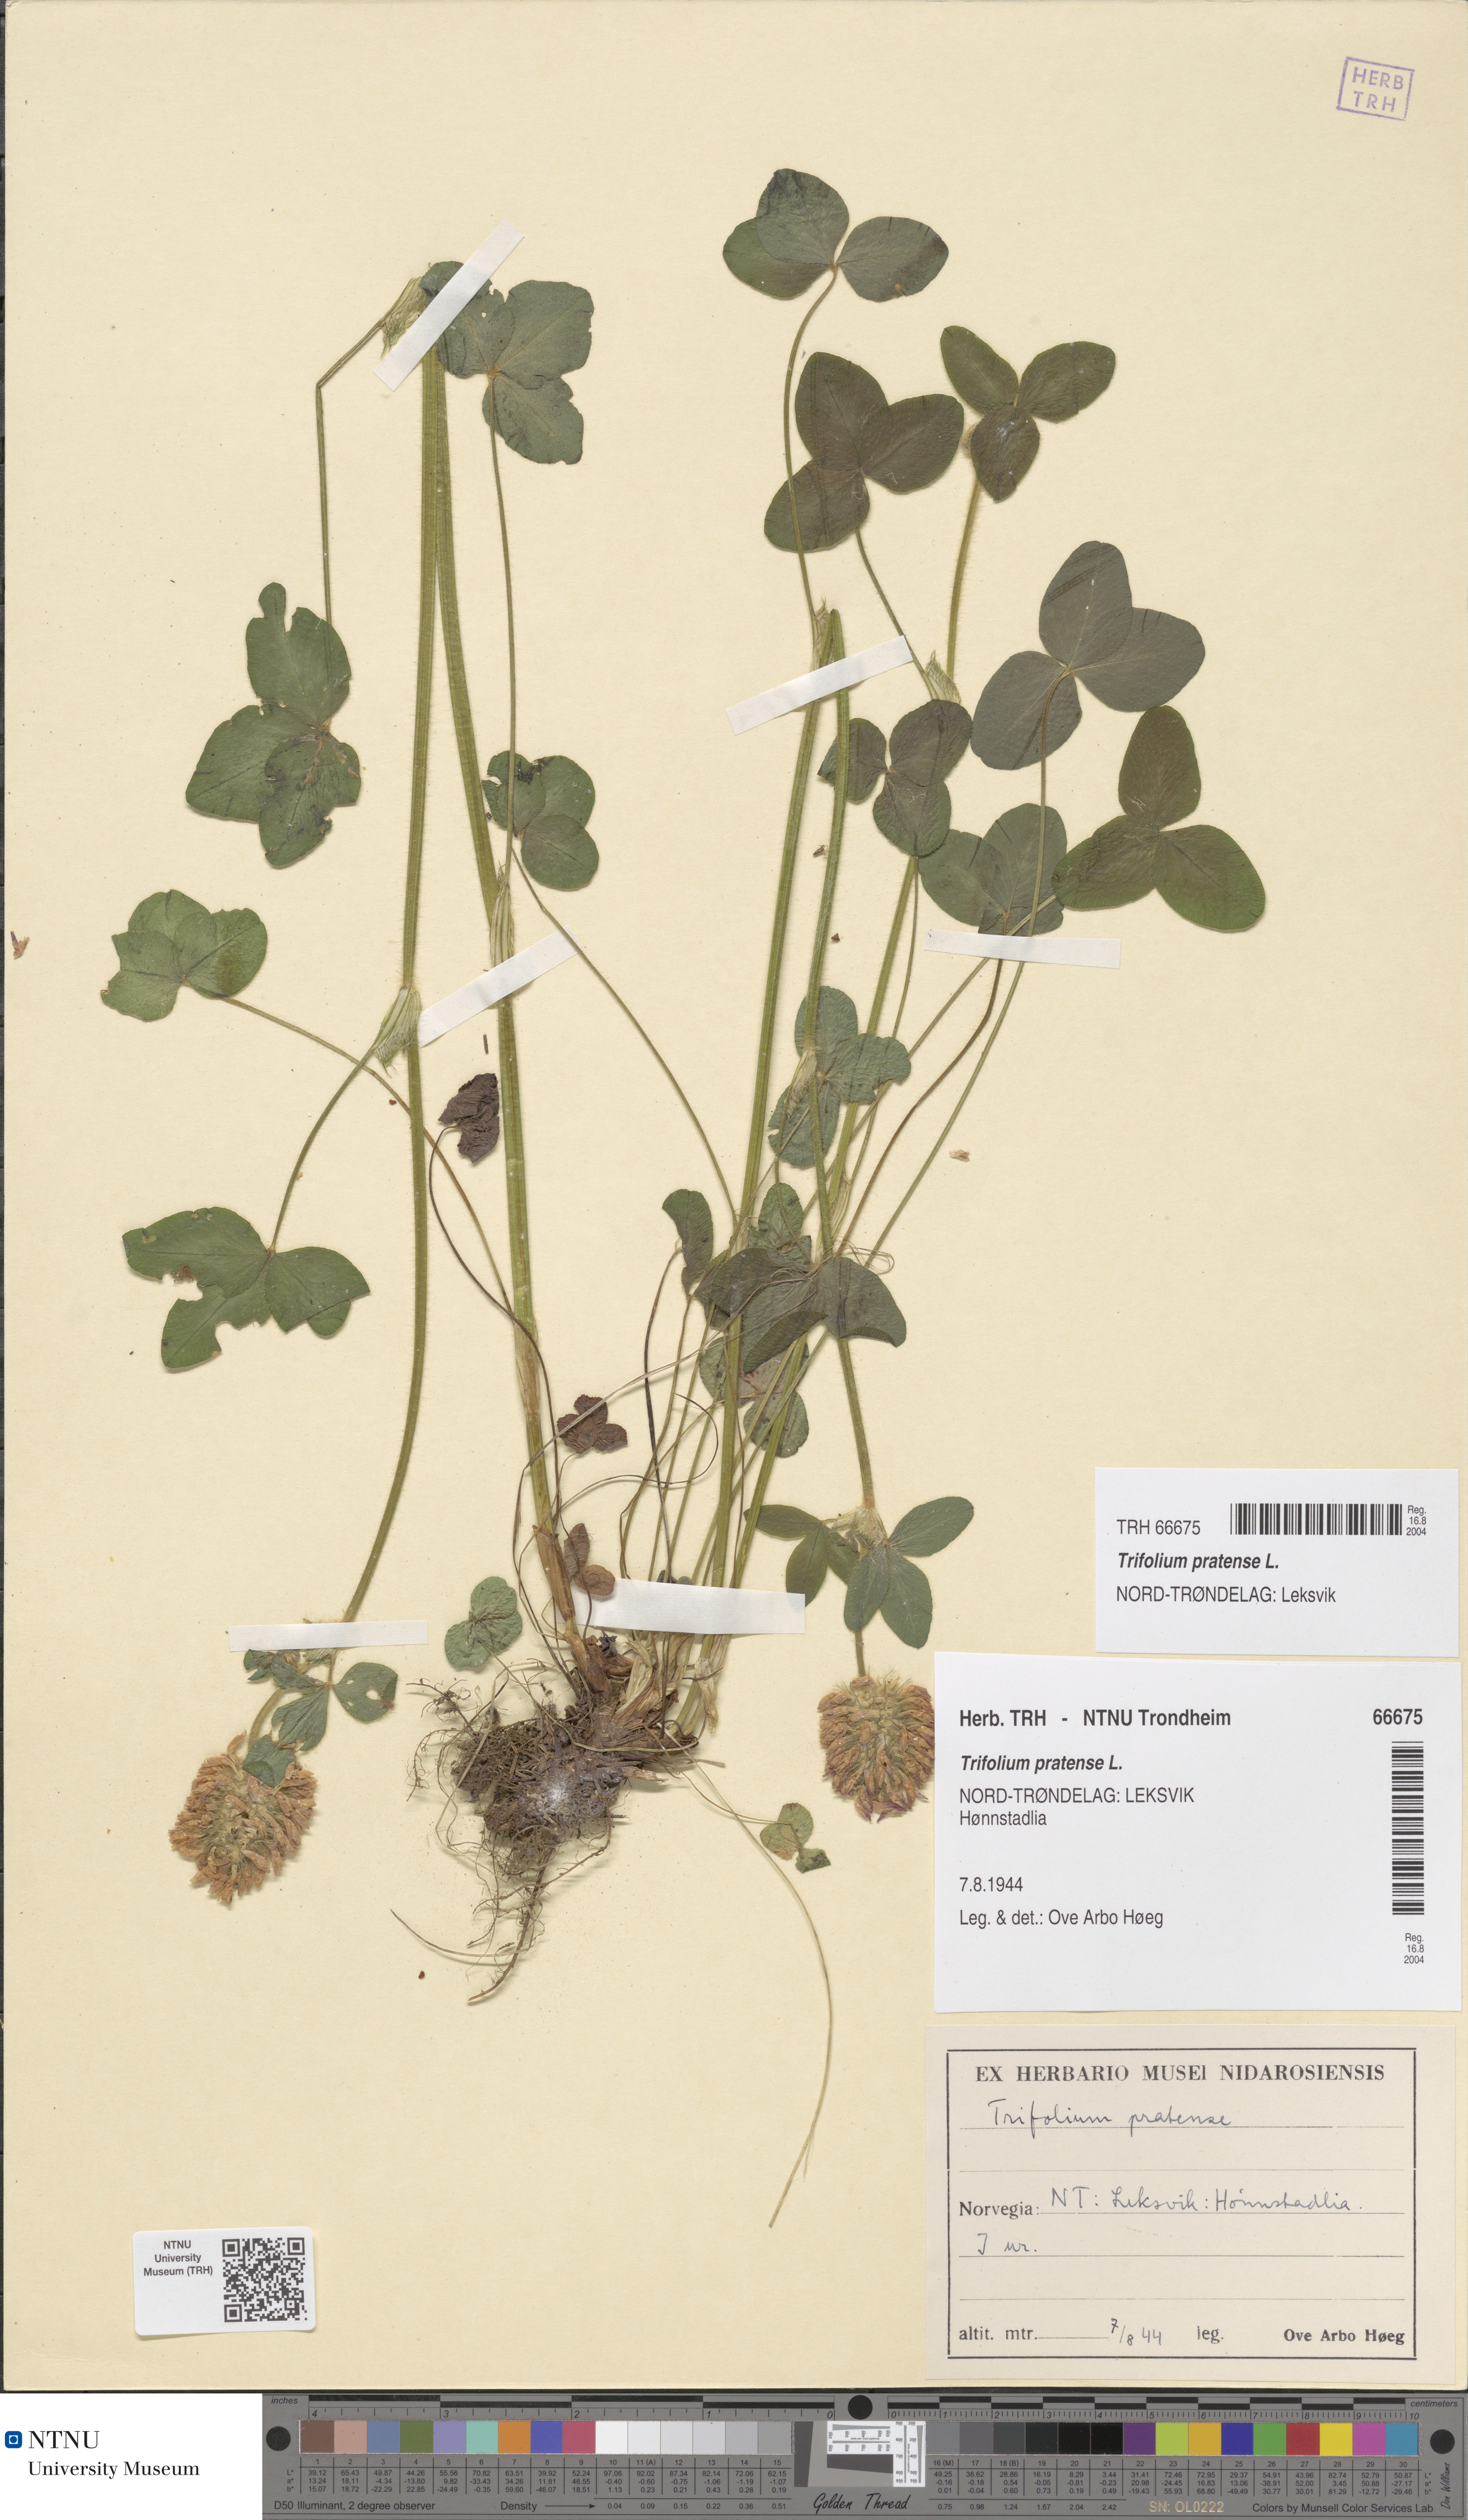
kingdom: Plantae
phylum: Tracheophyta
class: Magnoliopsida
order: Fabales
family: Fabaceae
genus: Trifolium
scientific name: Trifolium pratense
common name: Red clover
